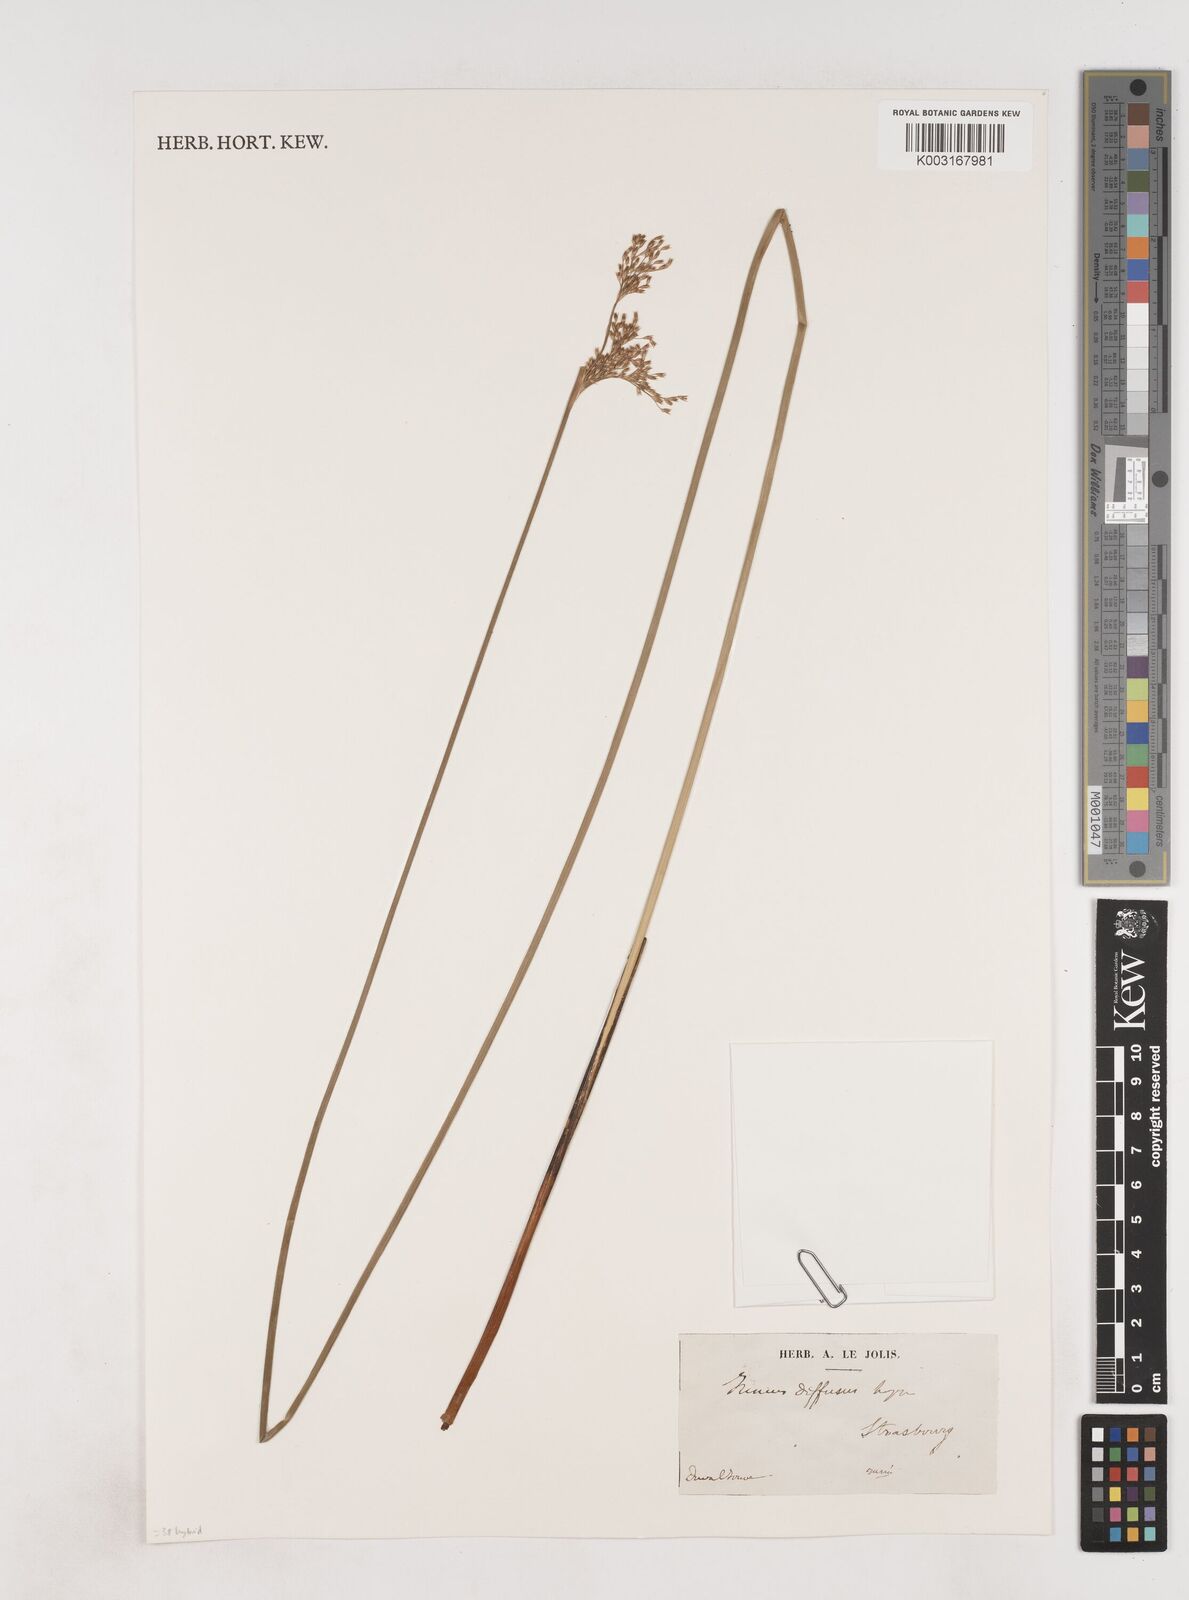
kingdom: Plantae
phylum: Tracheophyta
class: Liliopsida
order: Poales
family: Juncaceae
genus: Juncus
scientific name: Juncus effusus
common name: Soft rush
